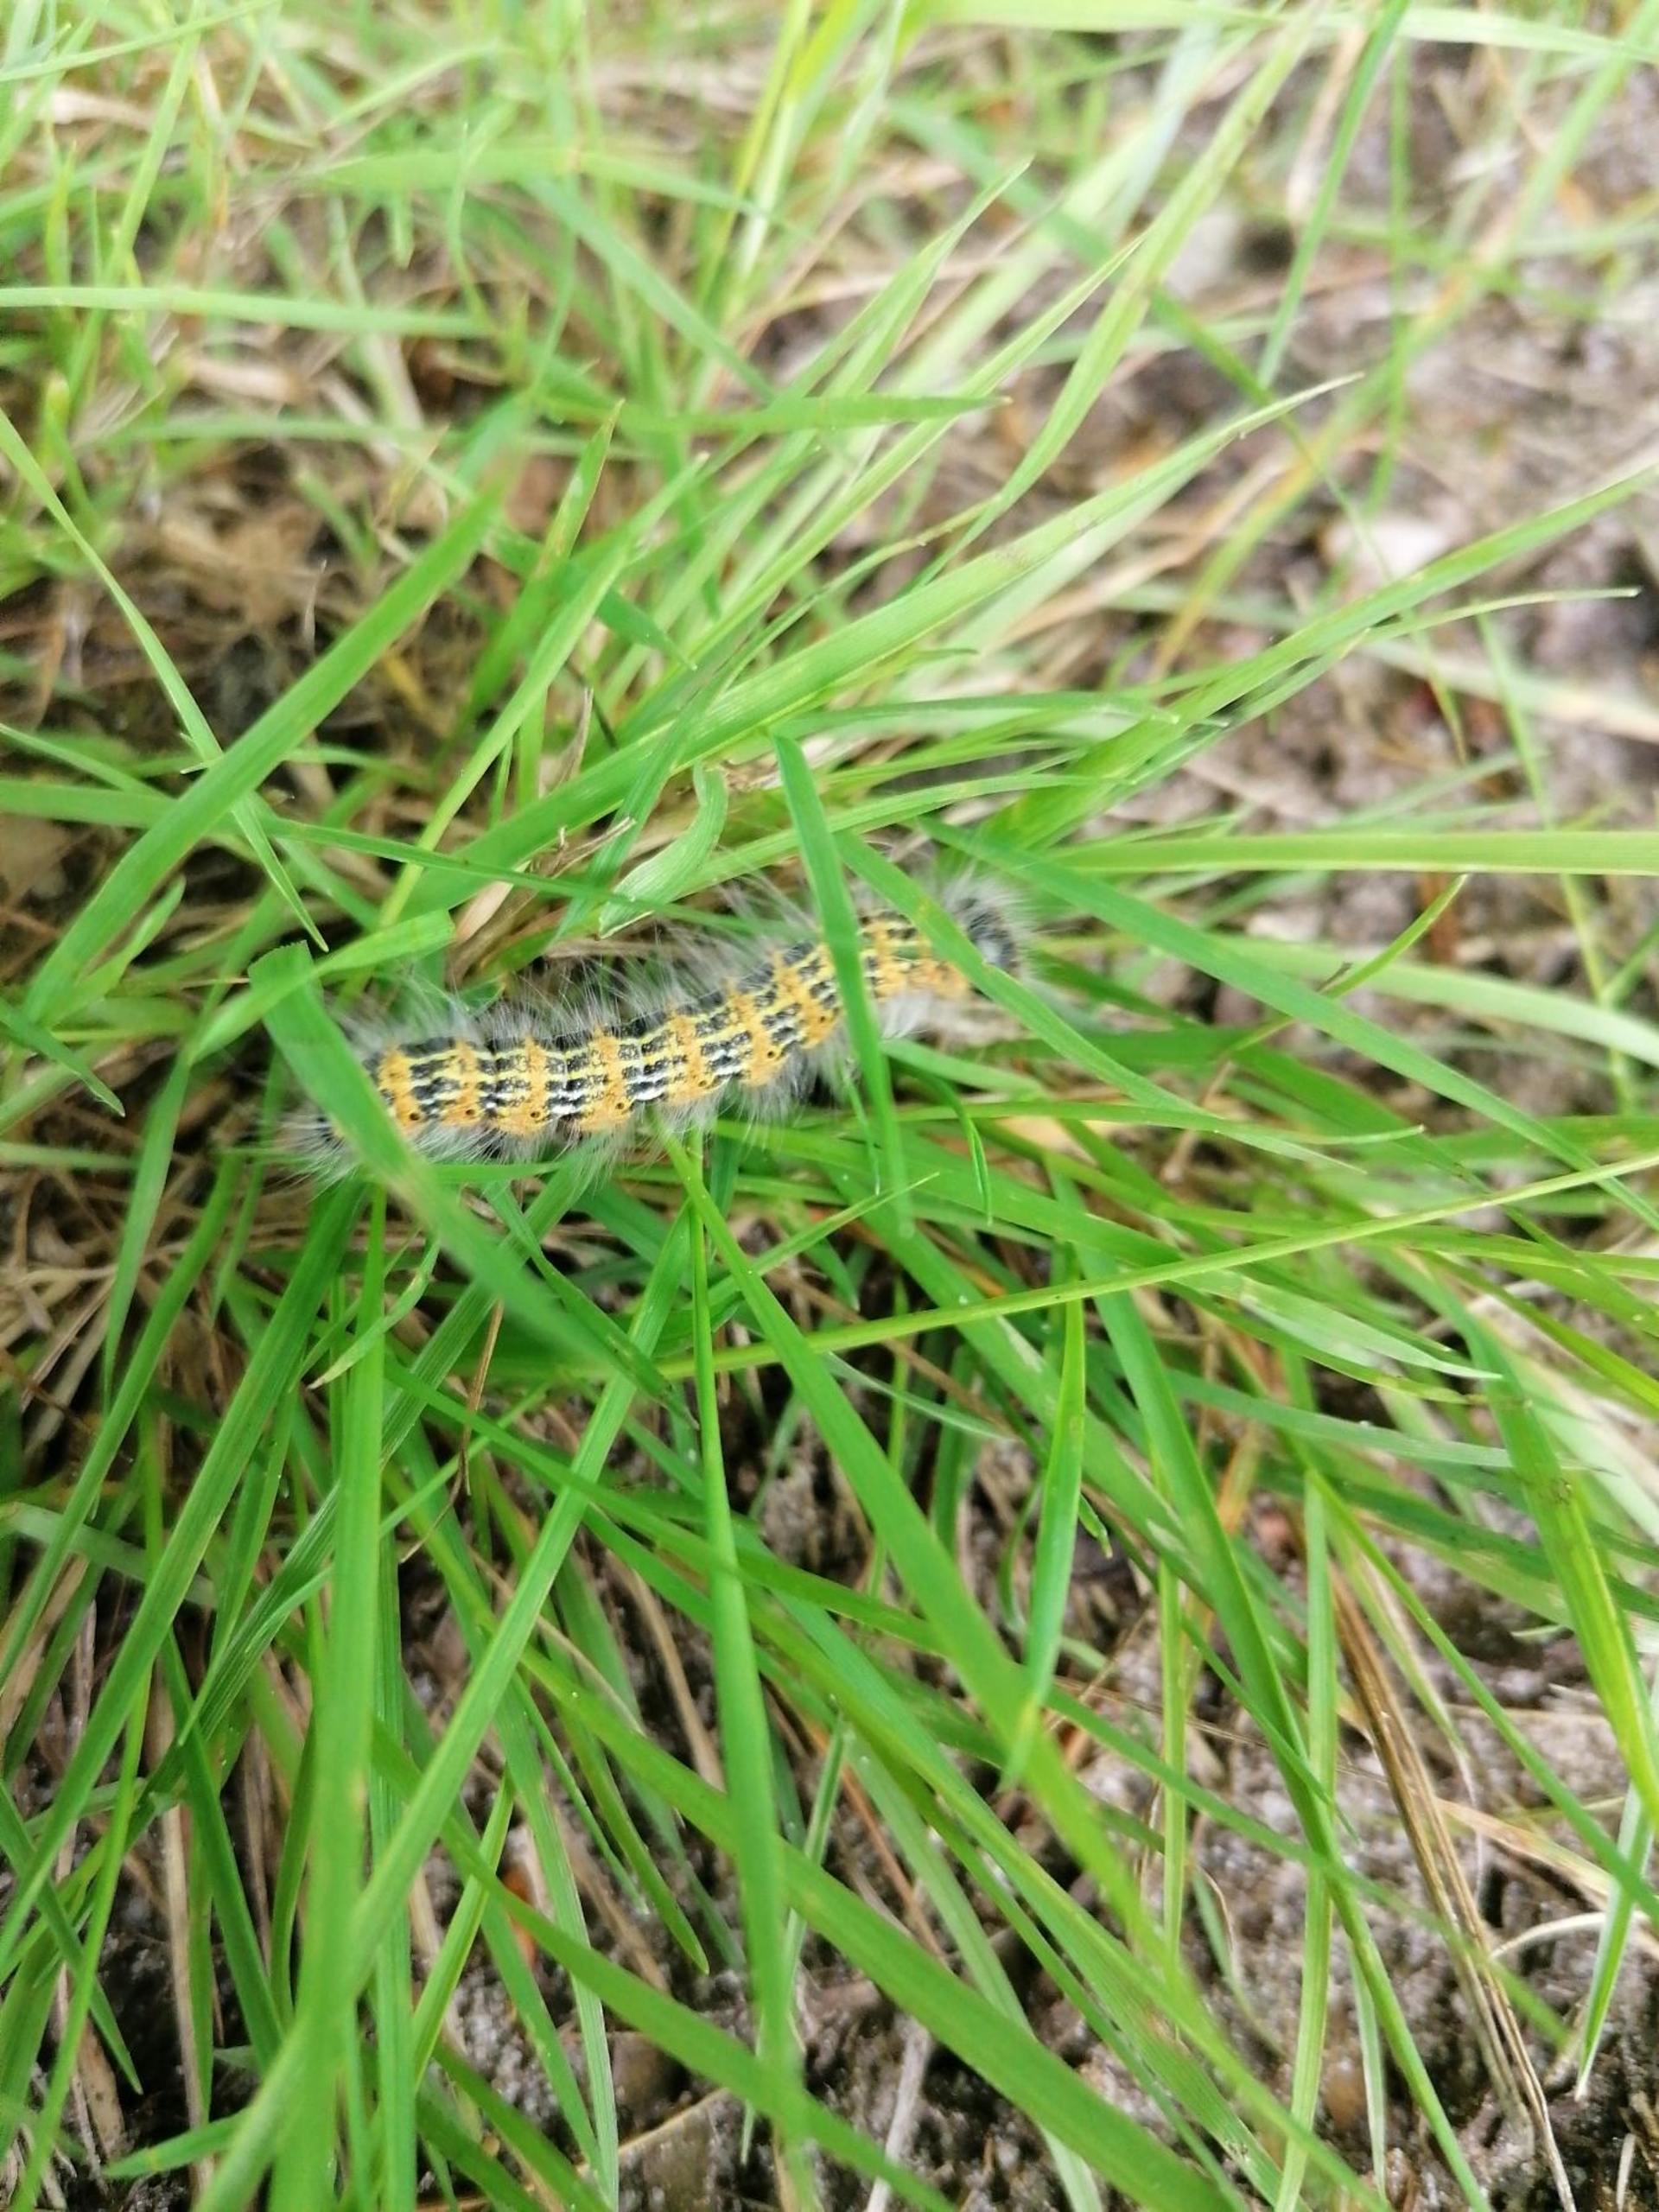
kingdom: Animalia
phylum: Arthropoda
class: Insecta
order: Lepidoptera
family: Notodontidae
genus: Phalera
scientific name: Phalera bucephala
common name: Måneplet
